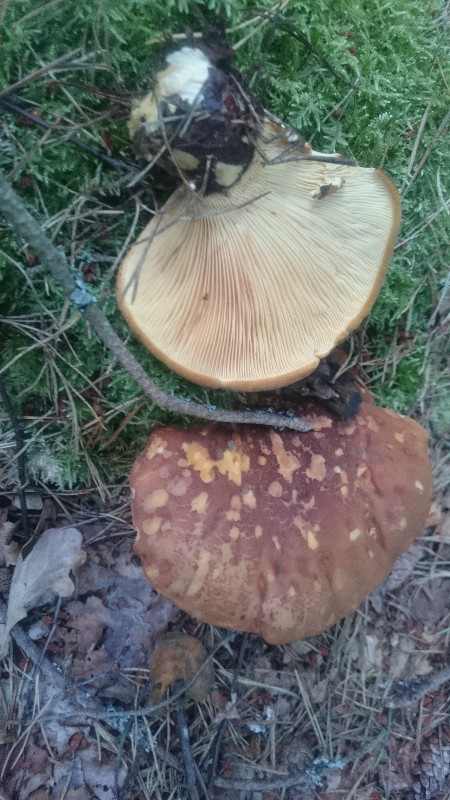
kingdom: Fungi
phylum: Basidiomycota
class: Agaricomycetes
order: Boletales
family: Tapinellaceae
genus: Tapinella
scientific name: Tapinella atrotomentosa
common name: sortfiltet viftesvamp
